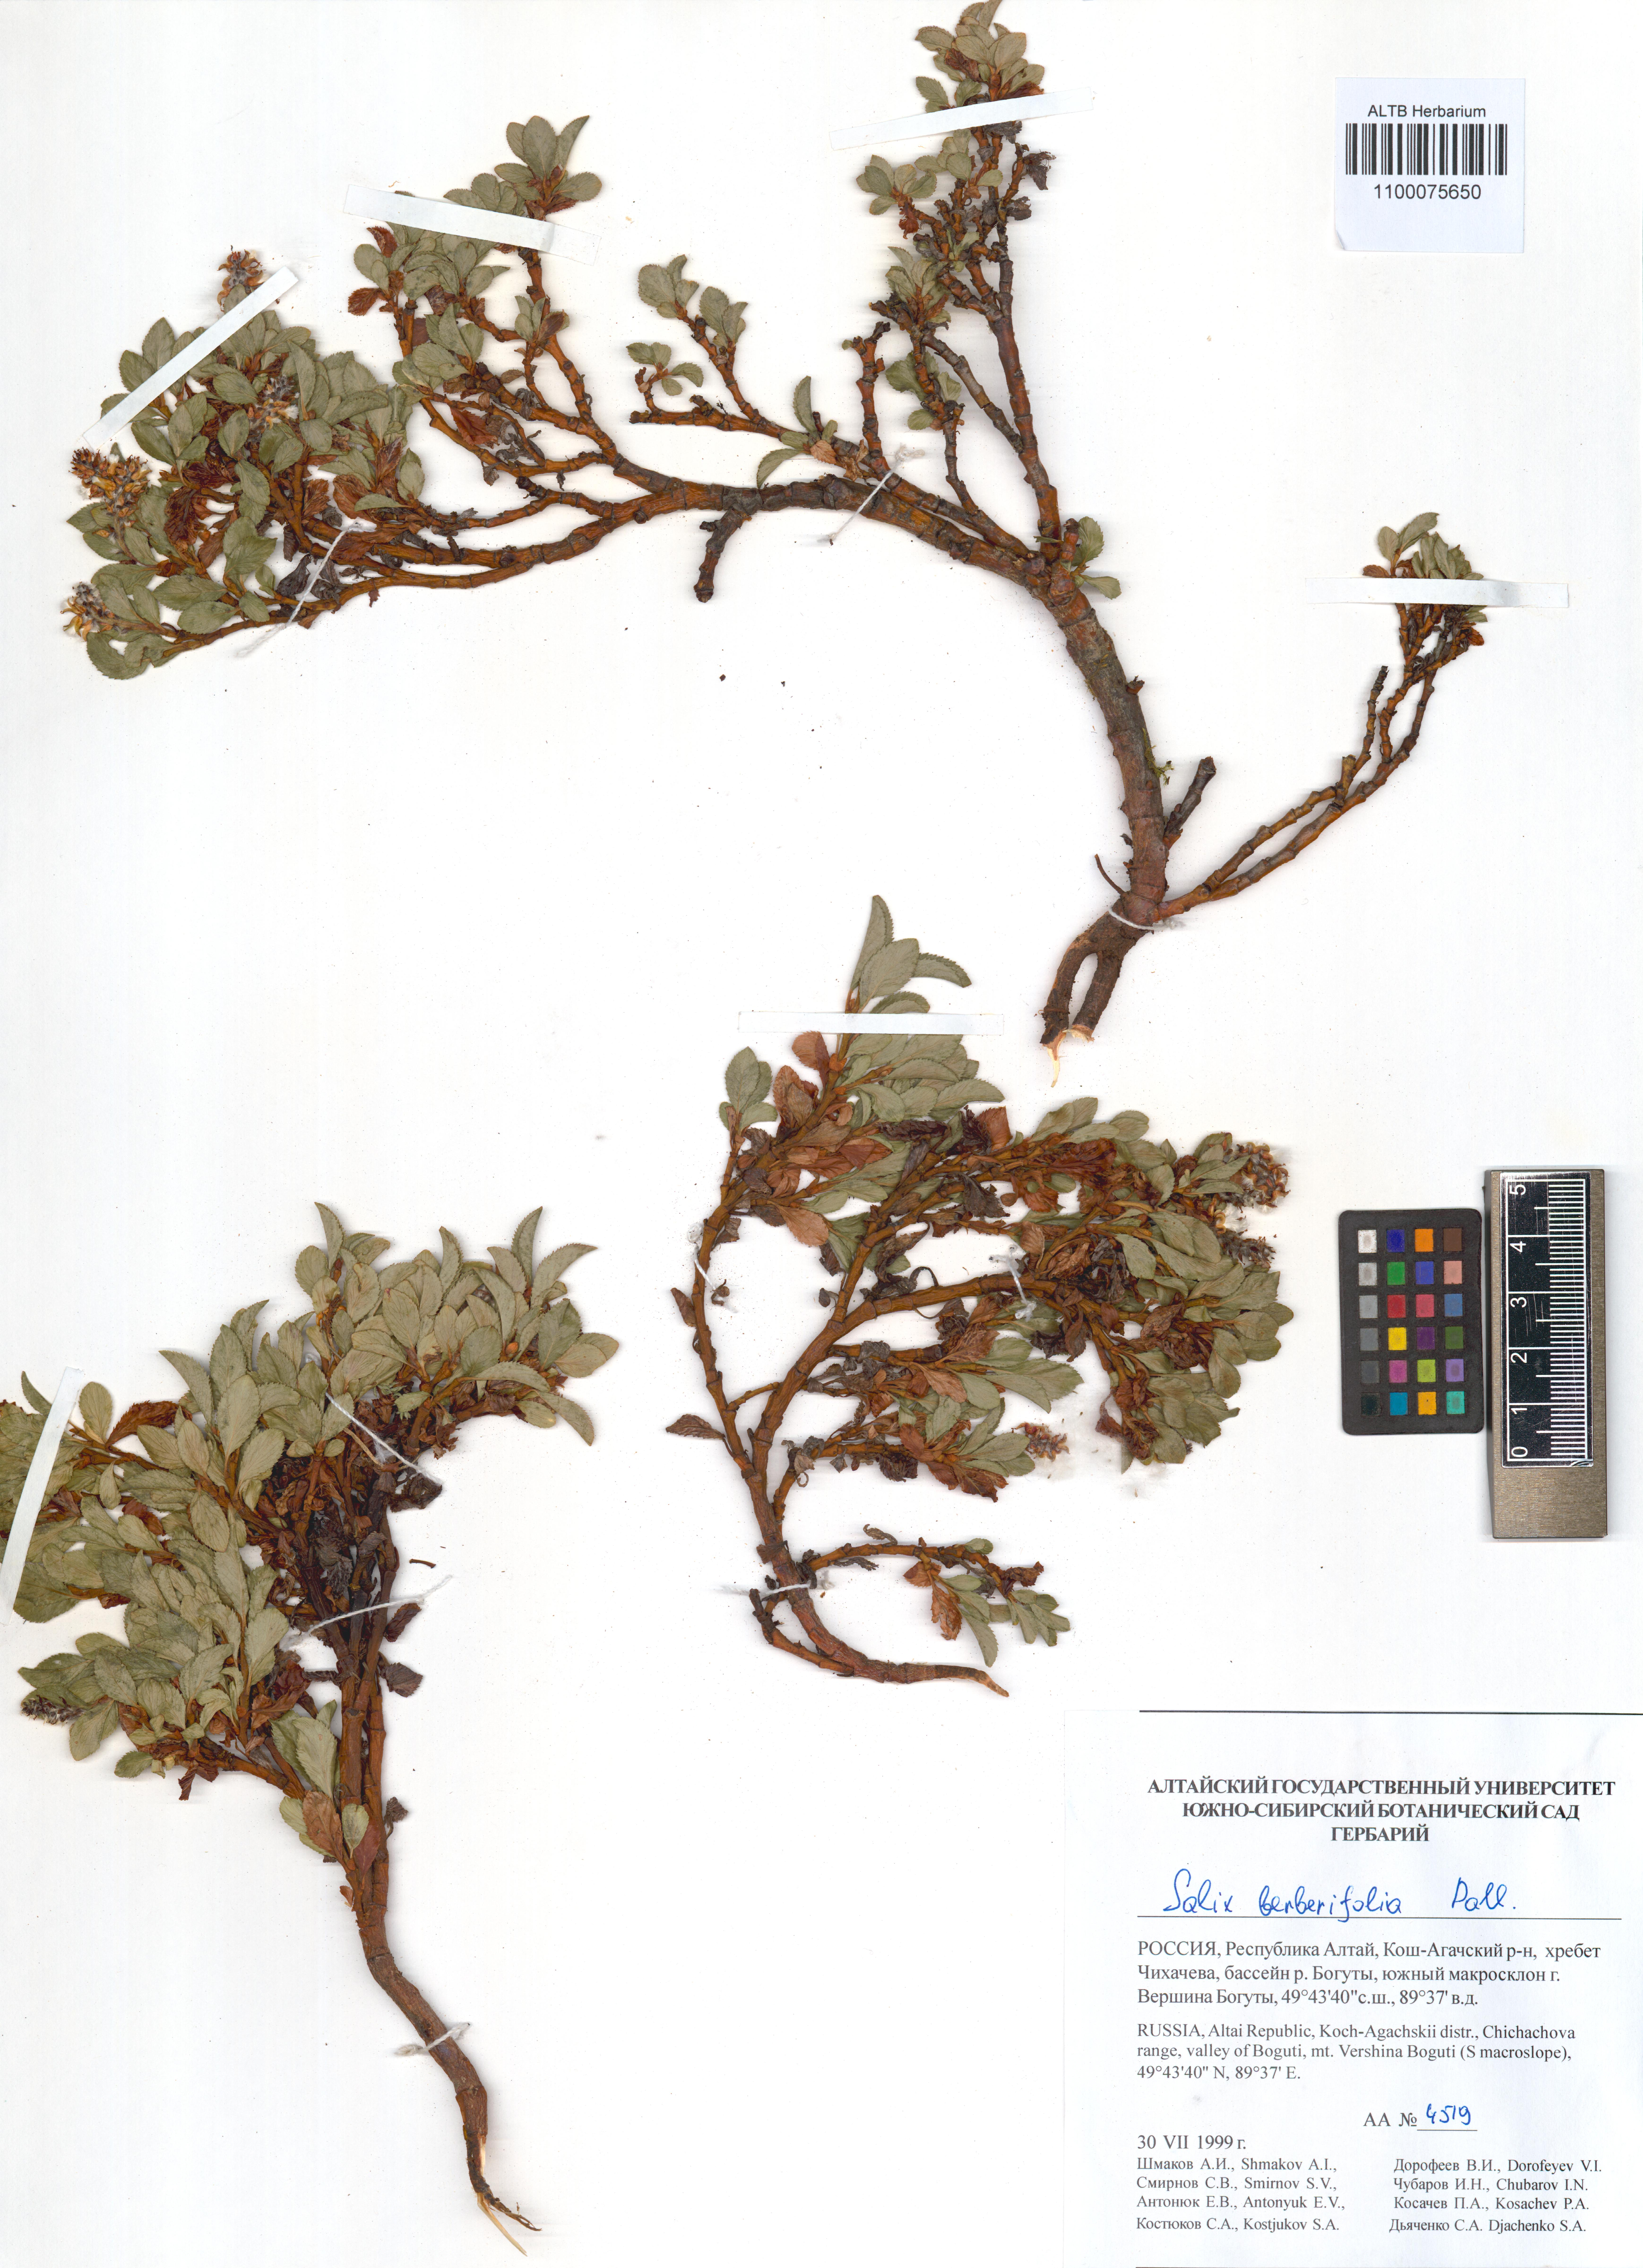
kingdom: Plantae
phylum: Tracheophyta
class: Magnoliopsida
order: Malpighiales
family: Salicaceae
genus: Salix
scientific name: Salix berberifolia
